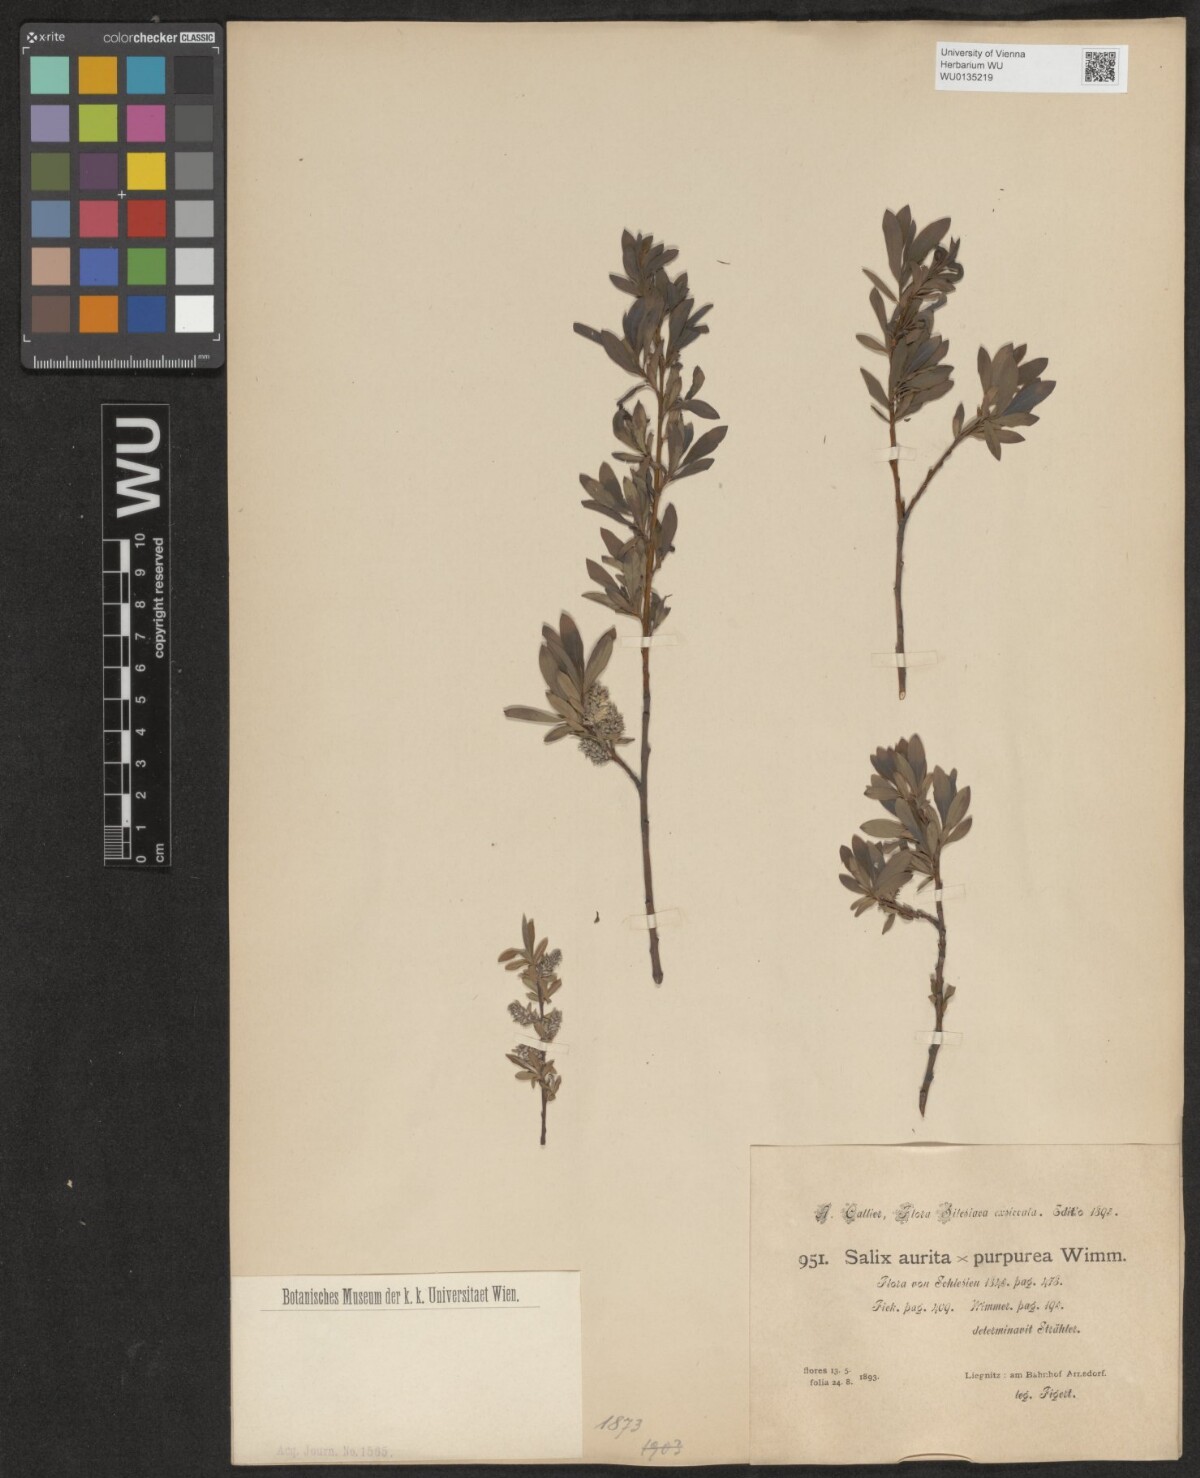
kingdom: Plantae
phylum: Tracheophyta
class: Magnoliopsida
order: Malpighiales
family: Salicaceae
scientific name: Salicaceae
